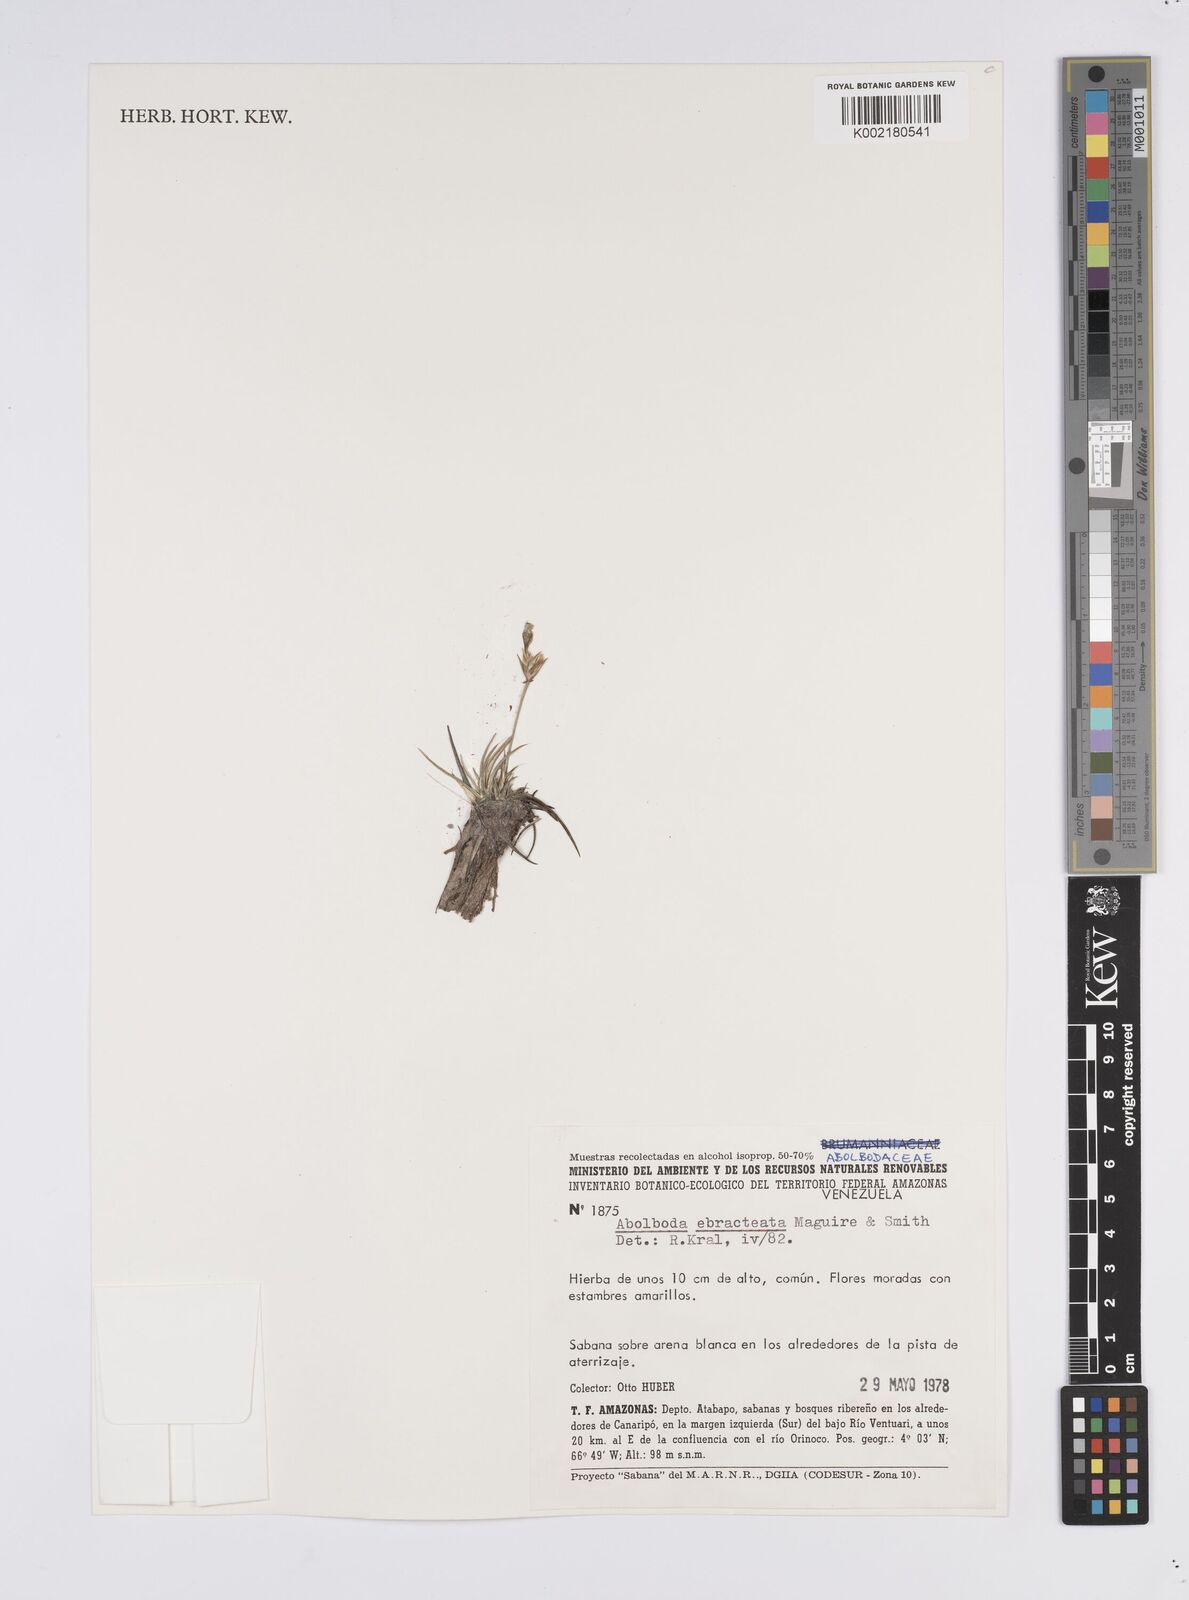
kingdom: Plantae
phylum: Tracheophyta
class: Liliopsida
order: Poales
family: Xyridaceae
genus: Abolboda
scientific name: Abolboda ebracteata
